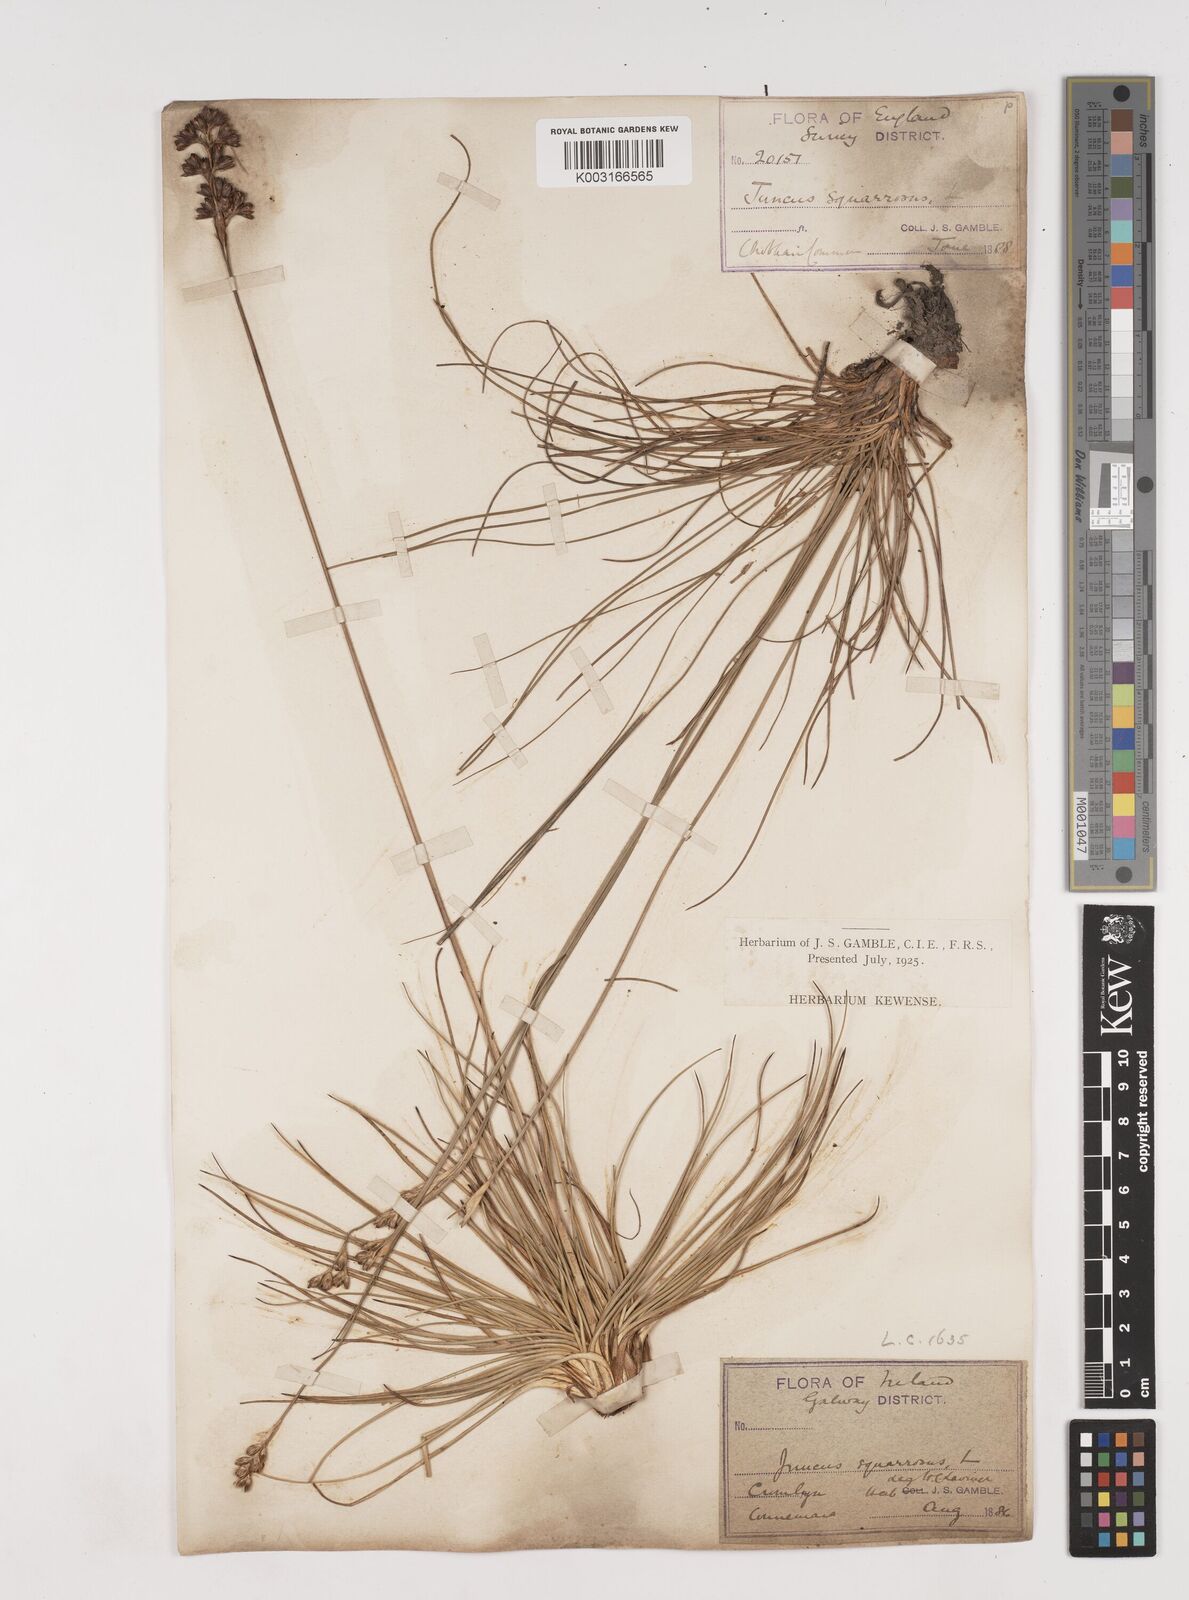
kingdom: Plantae
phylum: Tracheophyta
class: Liliopsida
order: Poales
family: Juncaceae
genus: Juncus
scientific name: Juncus squarrosus
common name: Heath rush
